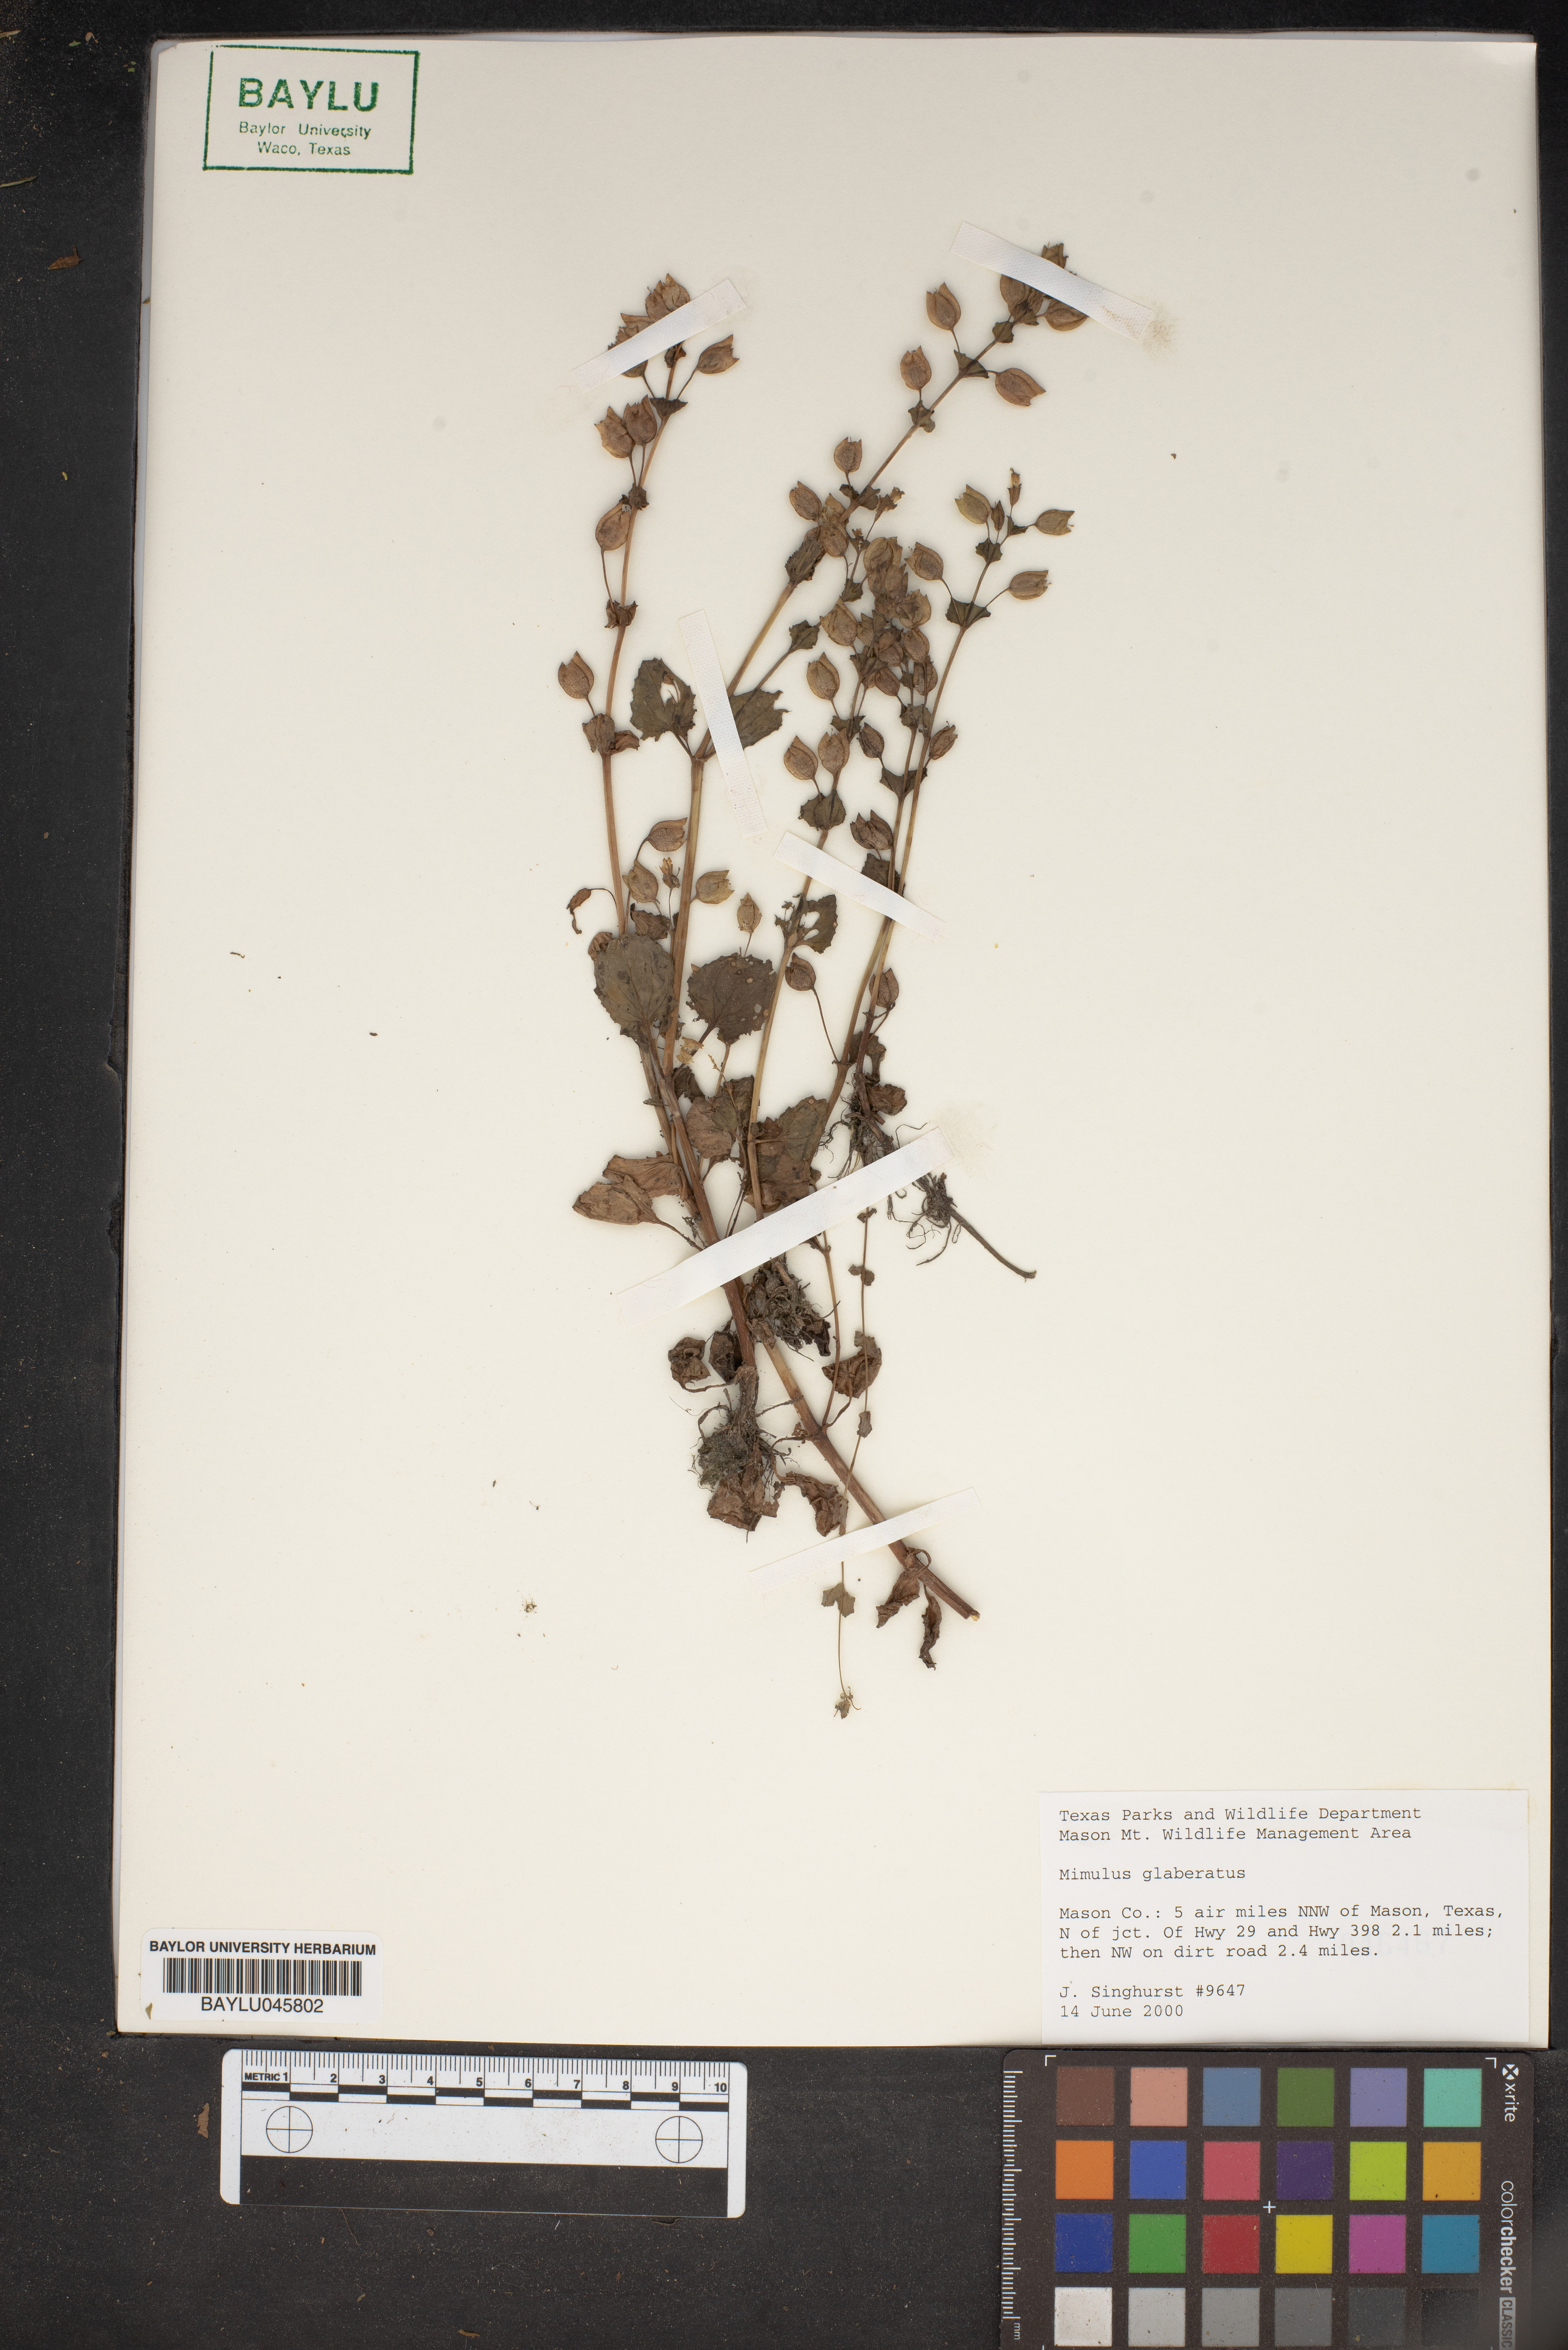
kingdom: Plantae
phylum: Tracheophyta
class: Magnoliopsida
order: Lamiales
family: Phrymaceae
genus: Erythranthe
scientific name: Erythranthe glabrata
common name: Round-leaved monkeyflower
